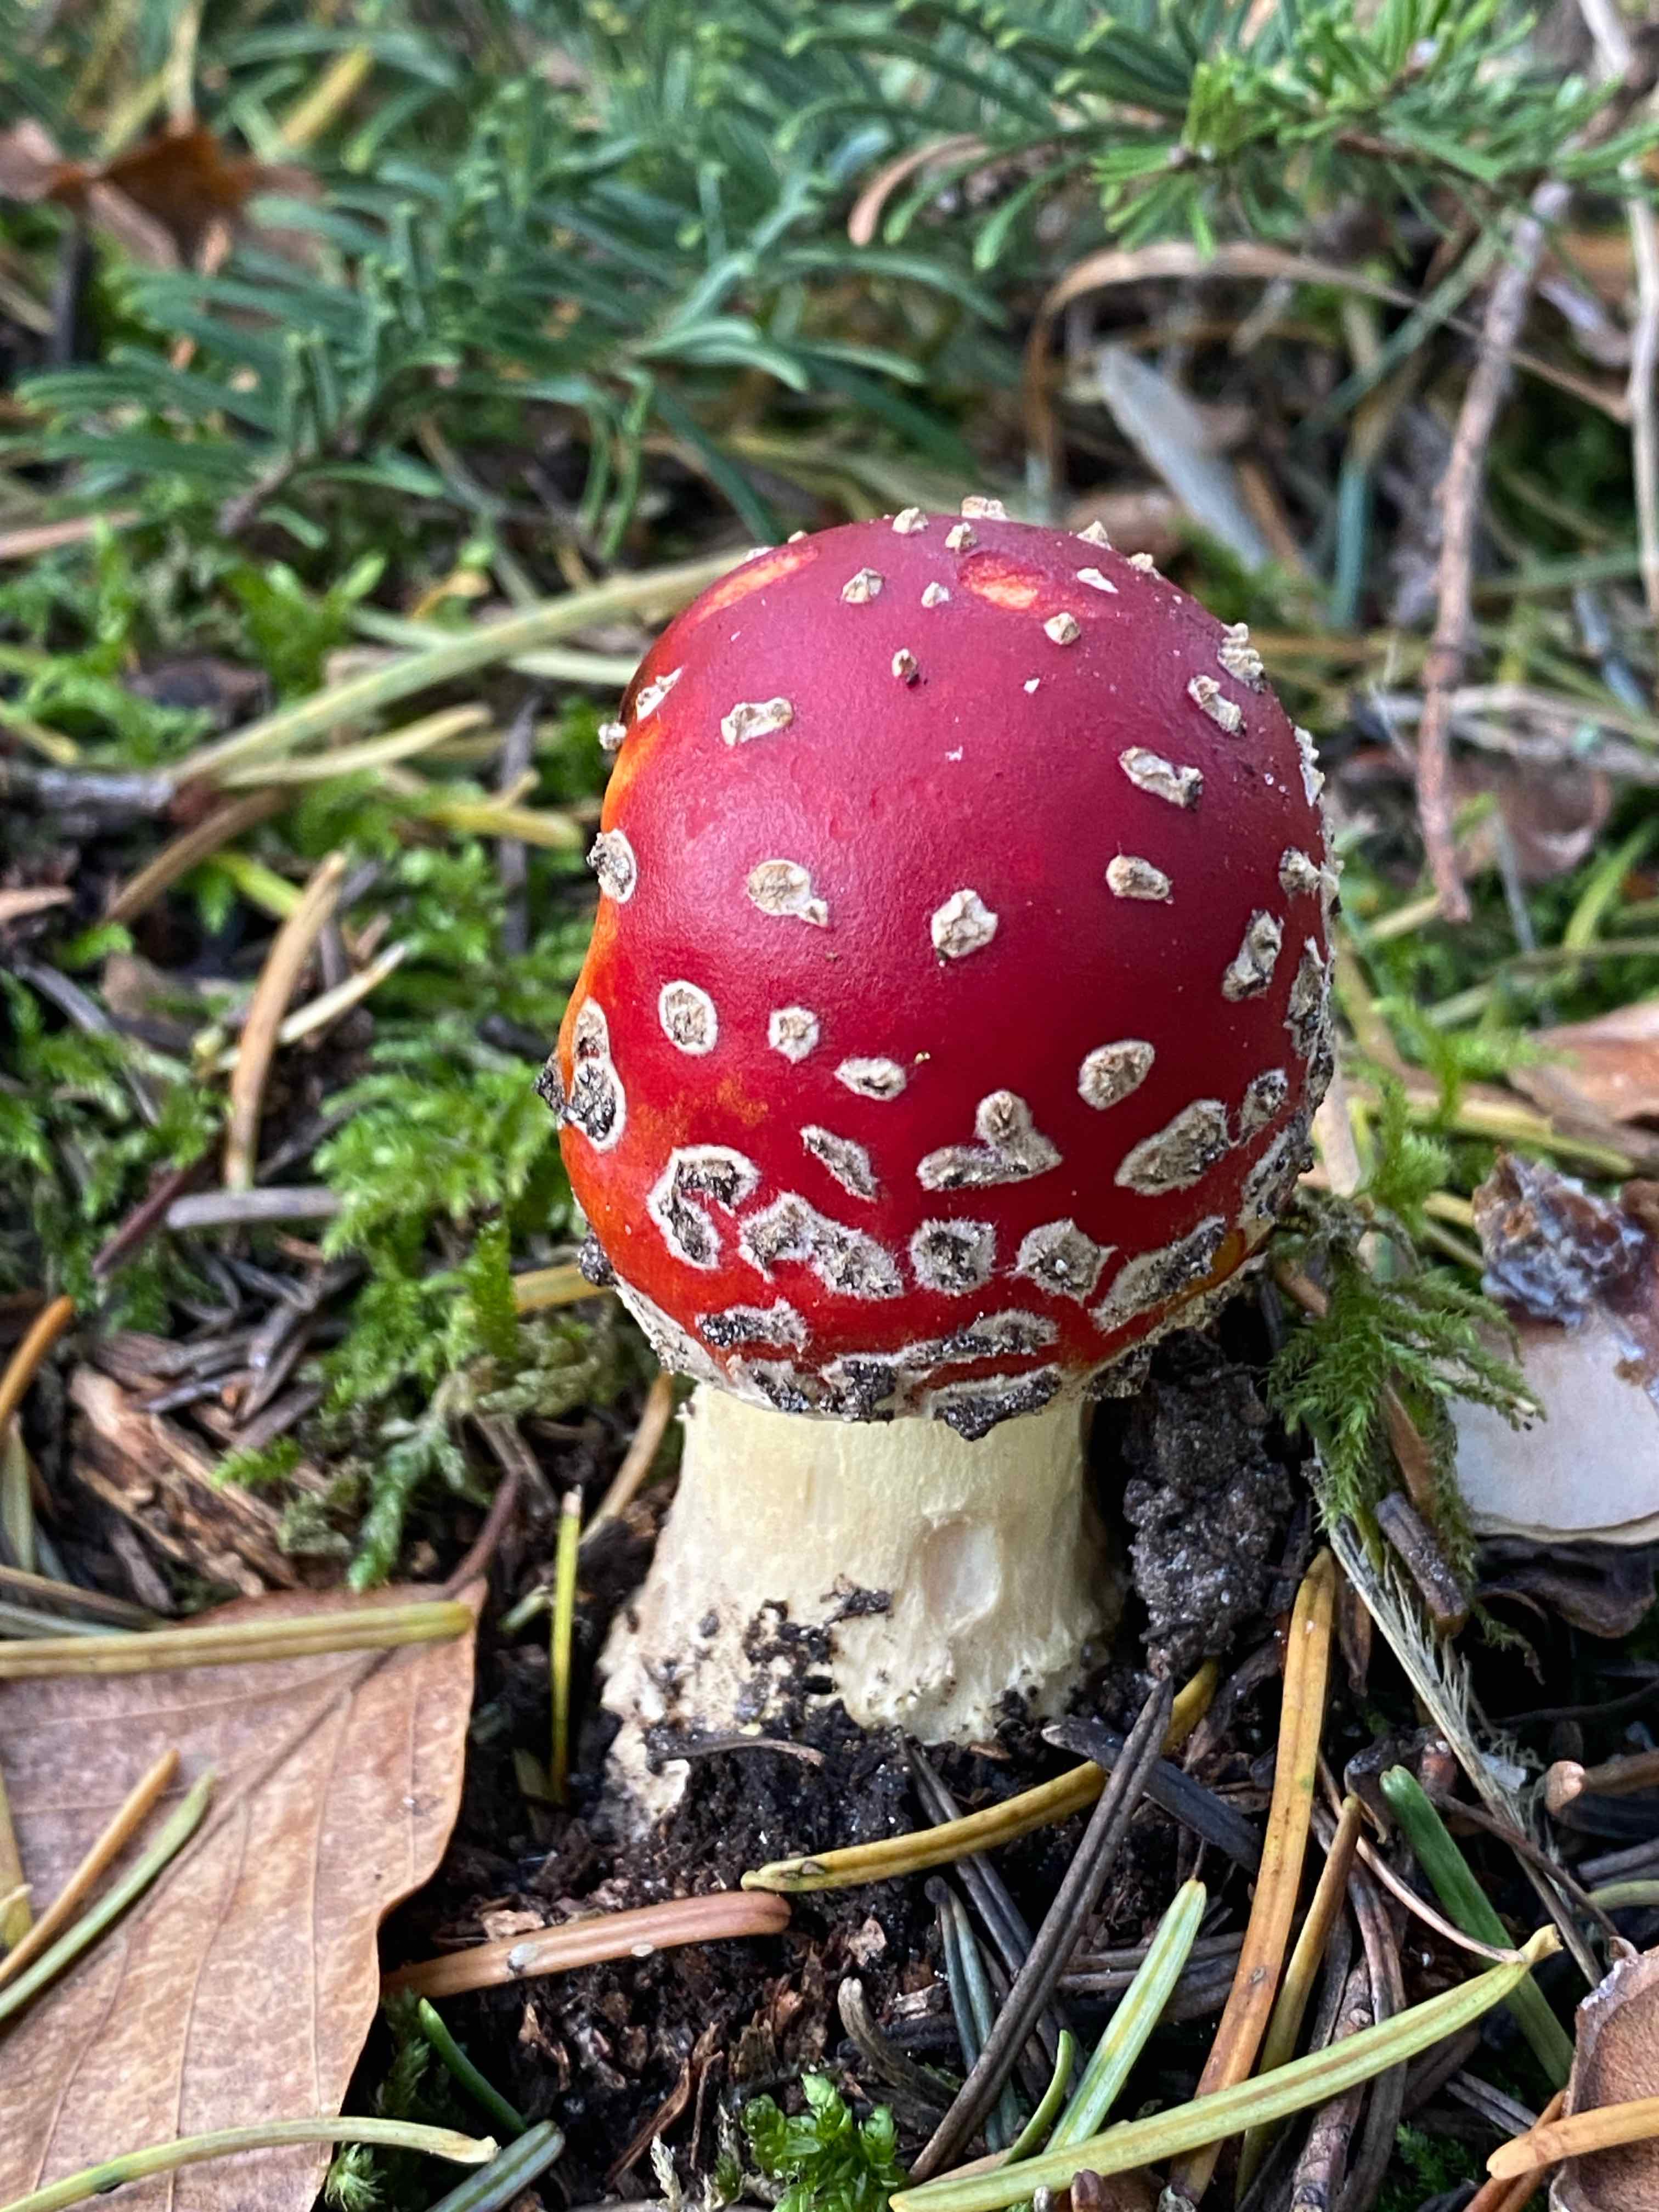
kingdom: Fungi
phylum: Basidiomycota
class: Agaricomycetes
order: Agaricales
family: Amanitaceae
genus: Amanita
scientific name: Amanita muscaria
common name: rød fluesvamp
